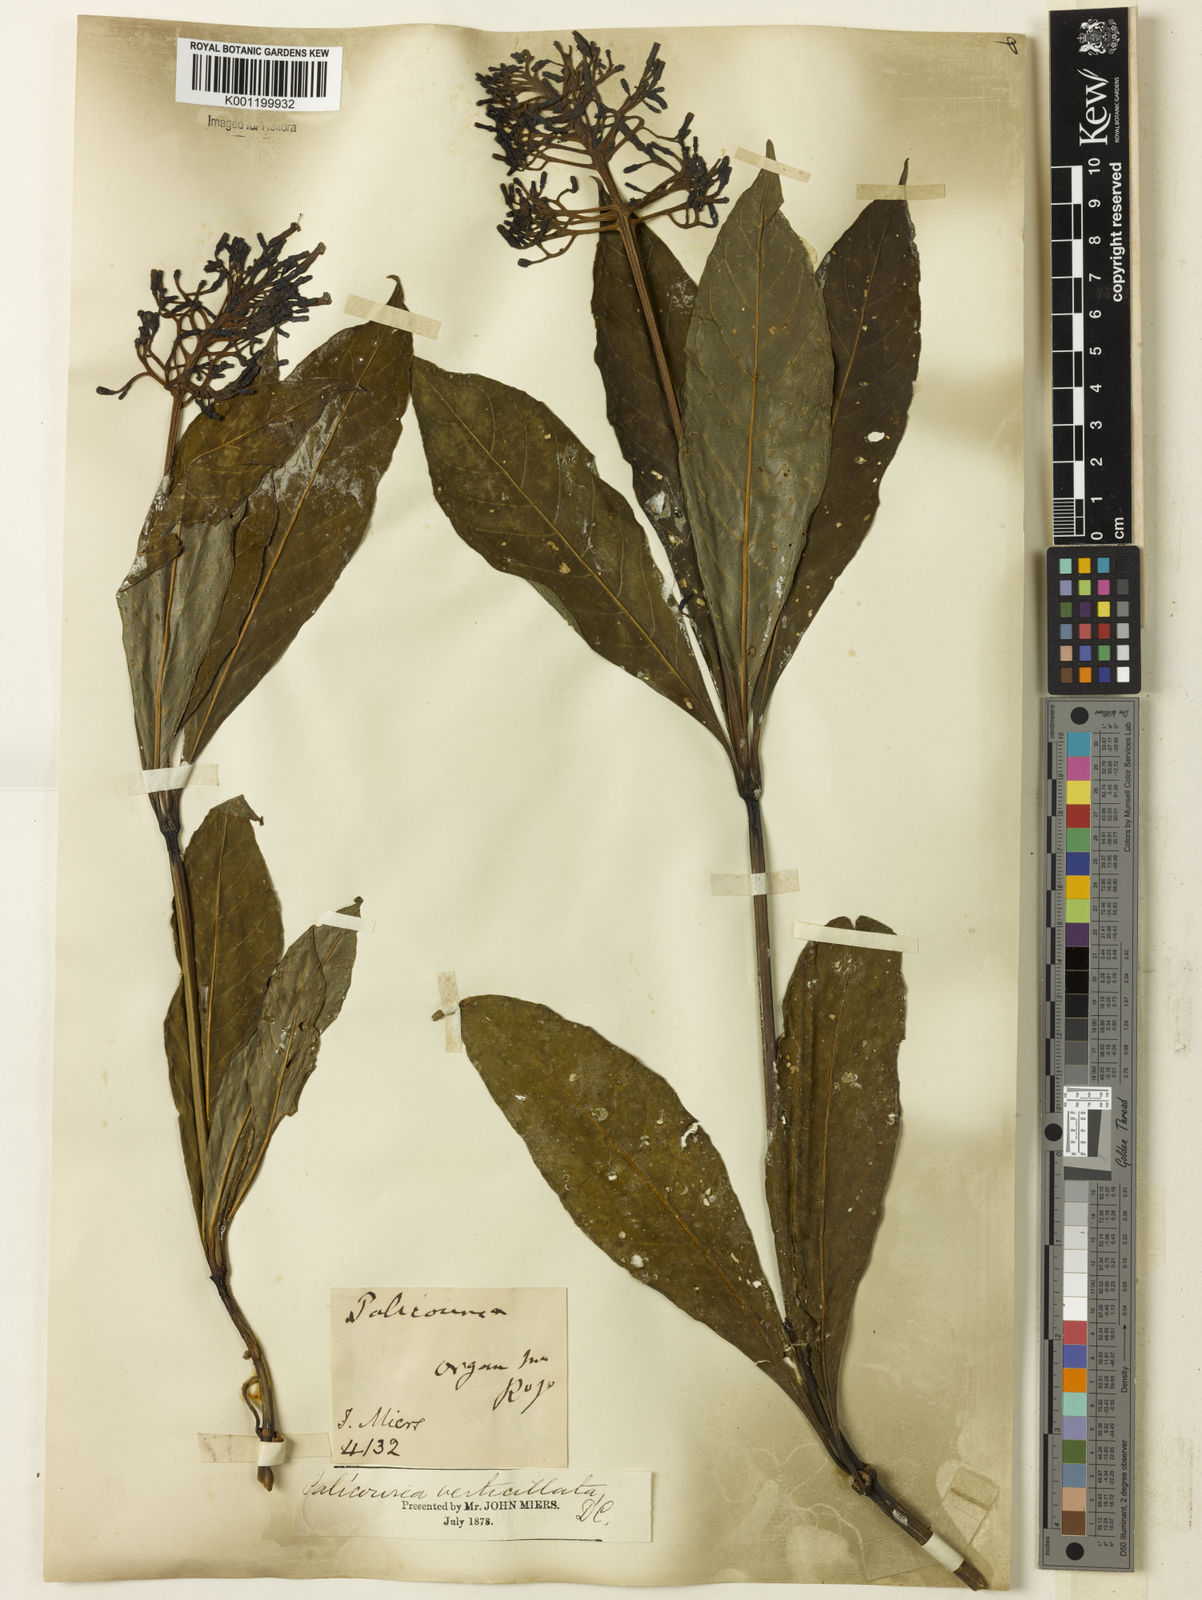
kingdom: Plantae
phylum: Tracheophyta
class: Magnoliopsida
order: Gentianales
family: Rubiaceae
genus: Palicourea
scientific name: Palicourea tetraphylla
